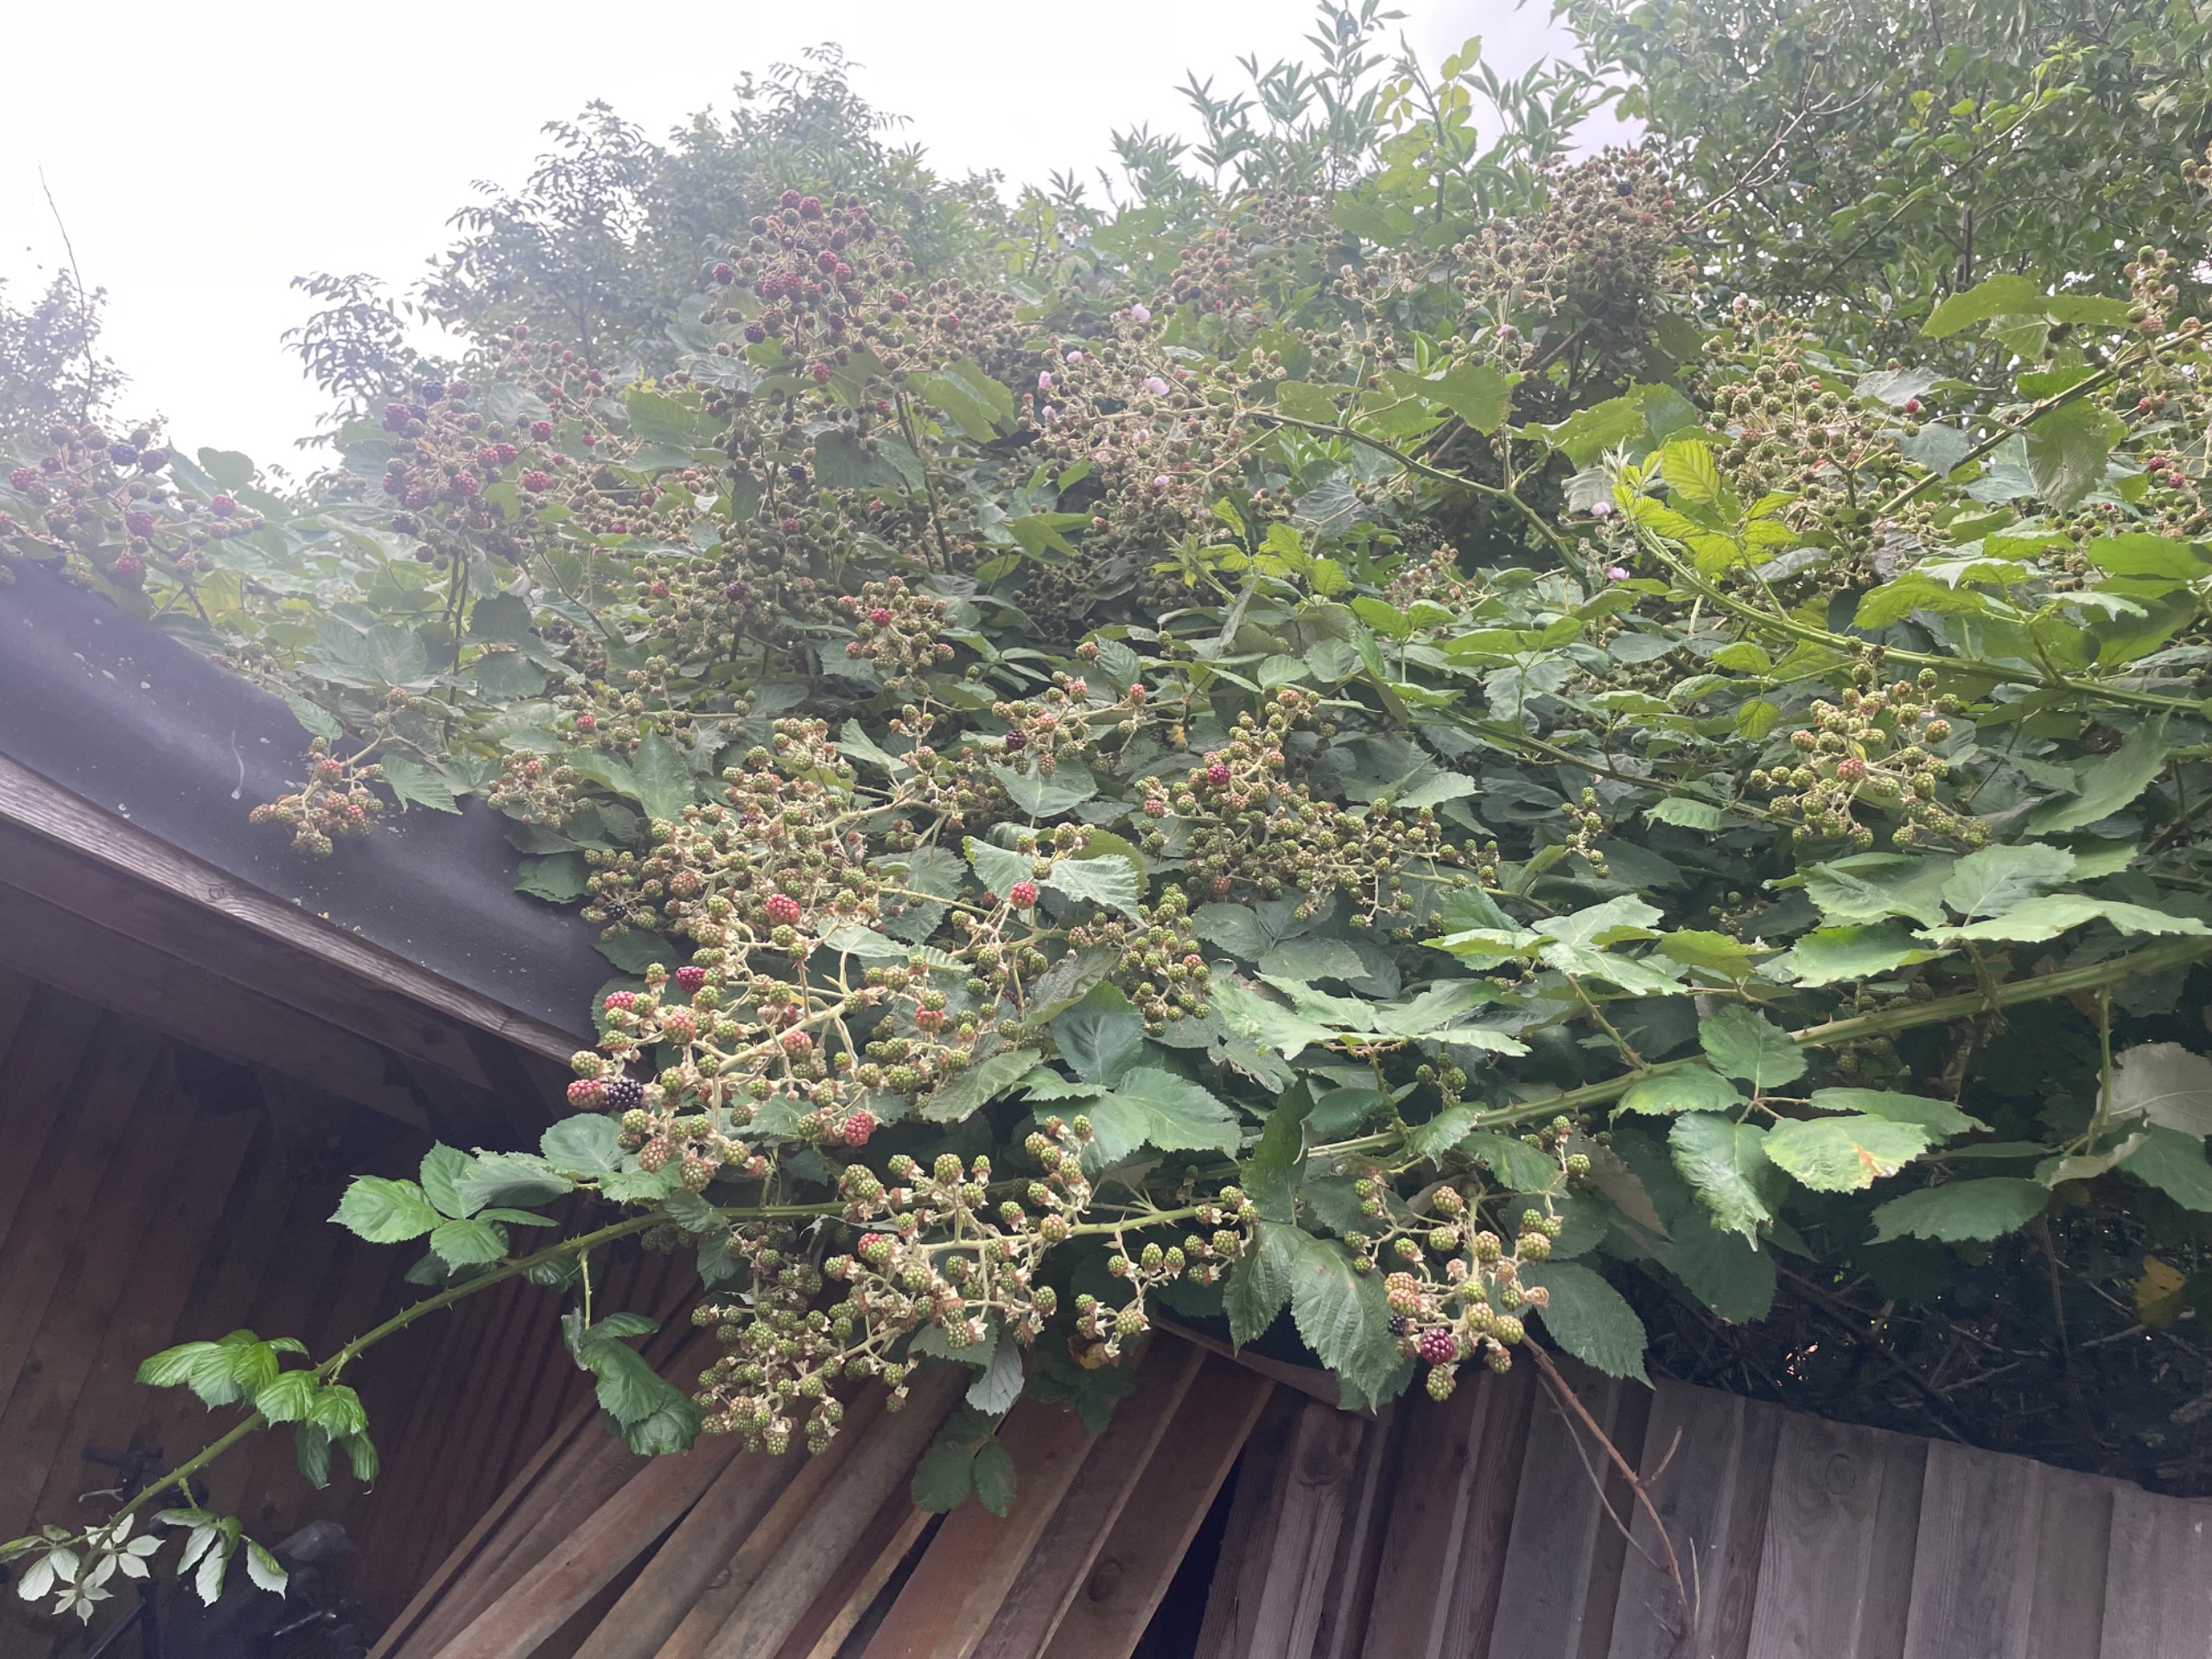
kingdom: Plantae
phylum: Tracheophyta
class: Magnoliopsida
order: Rosales
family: Rosaceae
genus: Rubus
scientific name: Rubus armeniacus
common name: Armensk brombær
